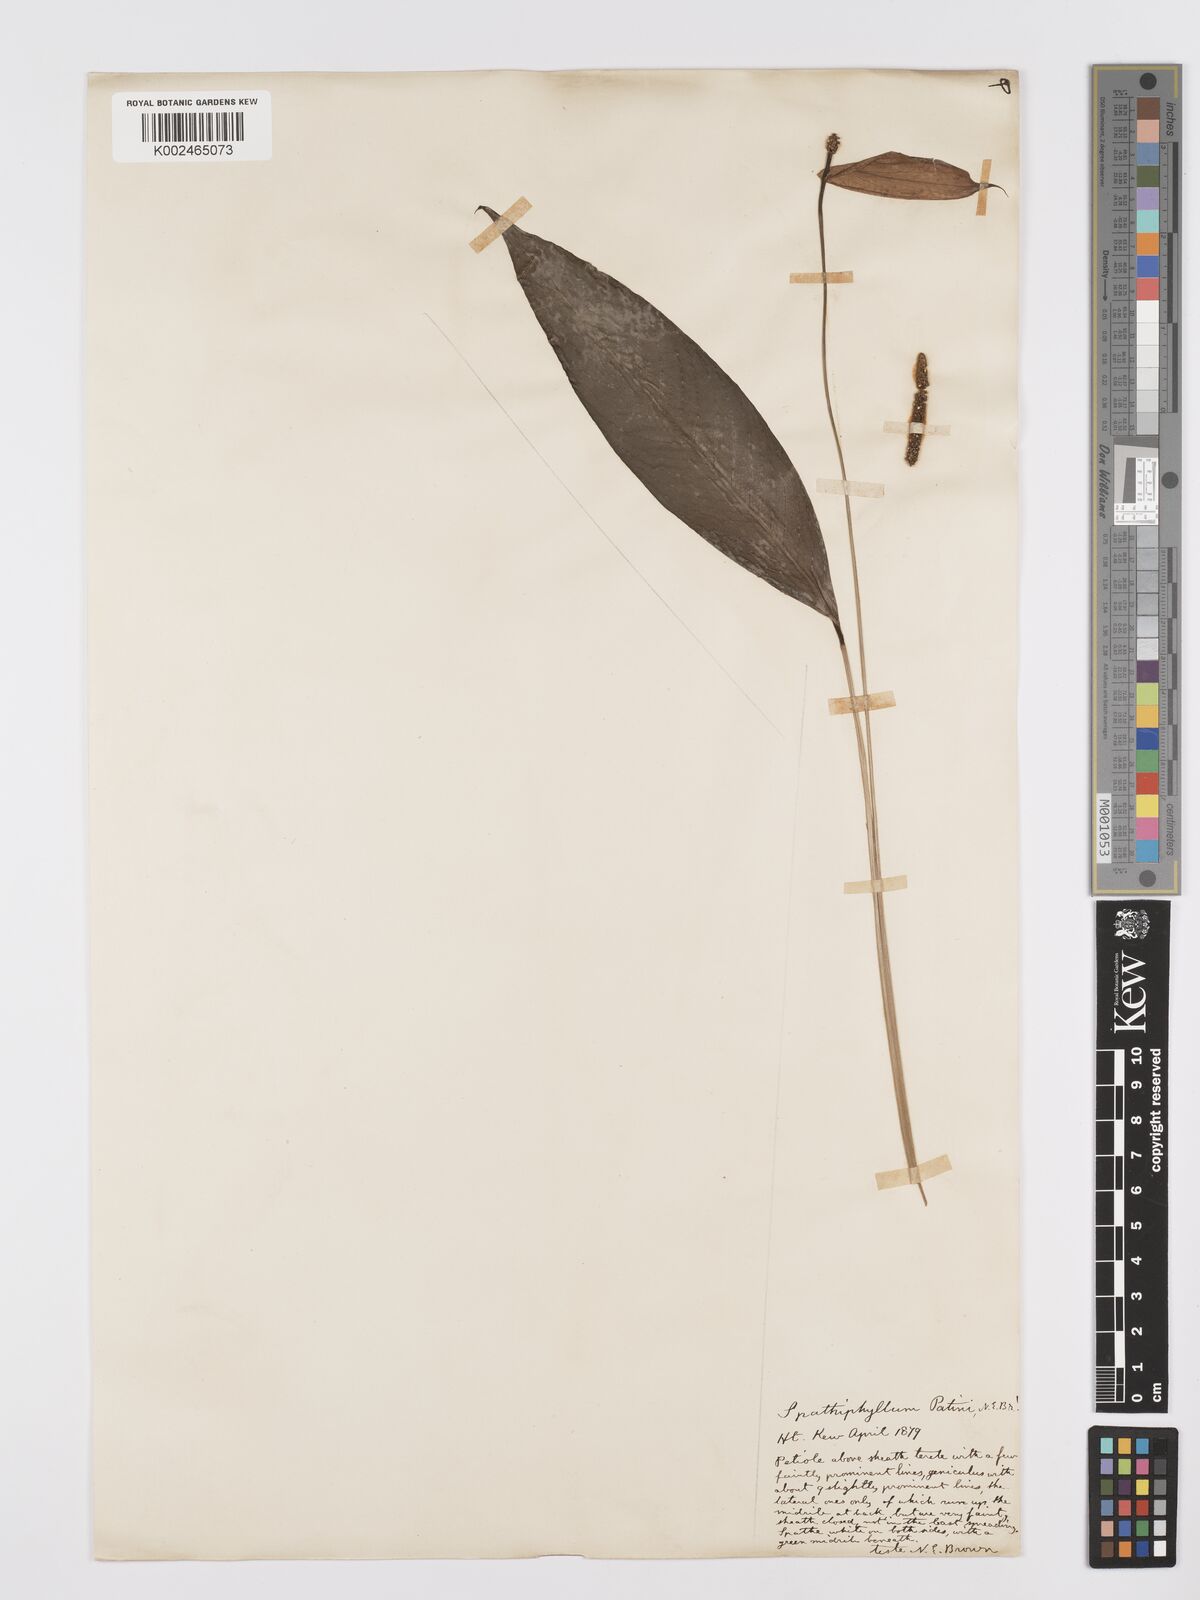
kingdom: Plantae
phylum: Tracheophyta
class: Liliopsida
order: Alismatales
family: Araceae
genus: Spathiphyllum
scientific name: Spathiphyllum patinii
